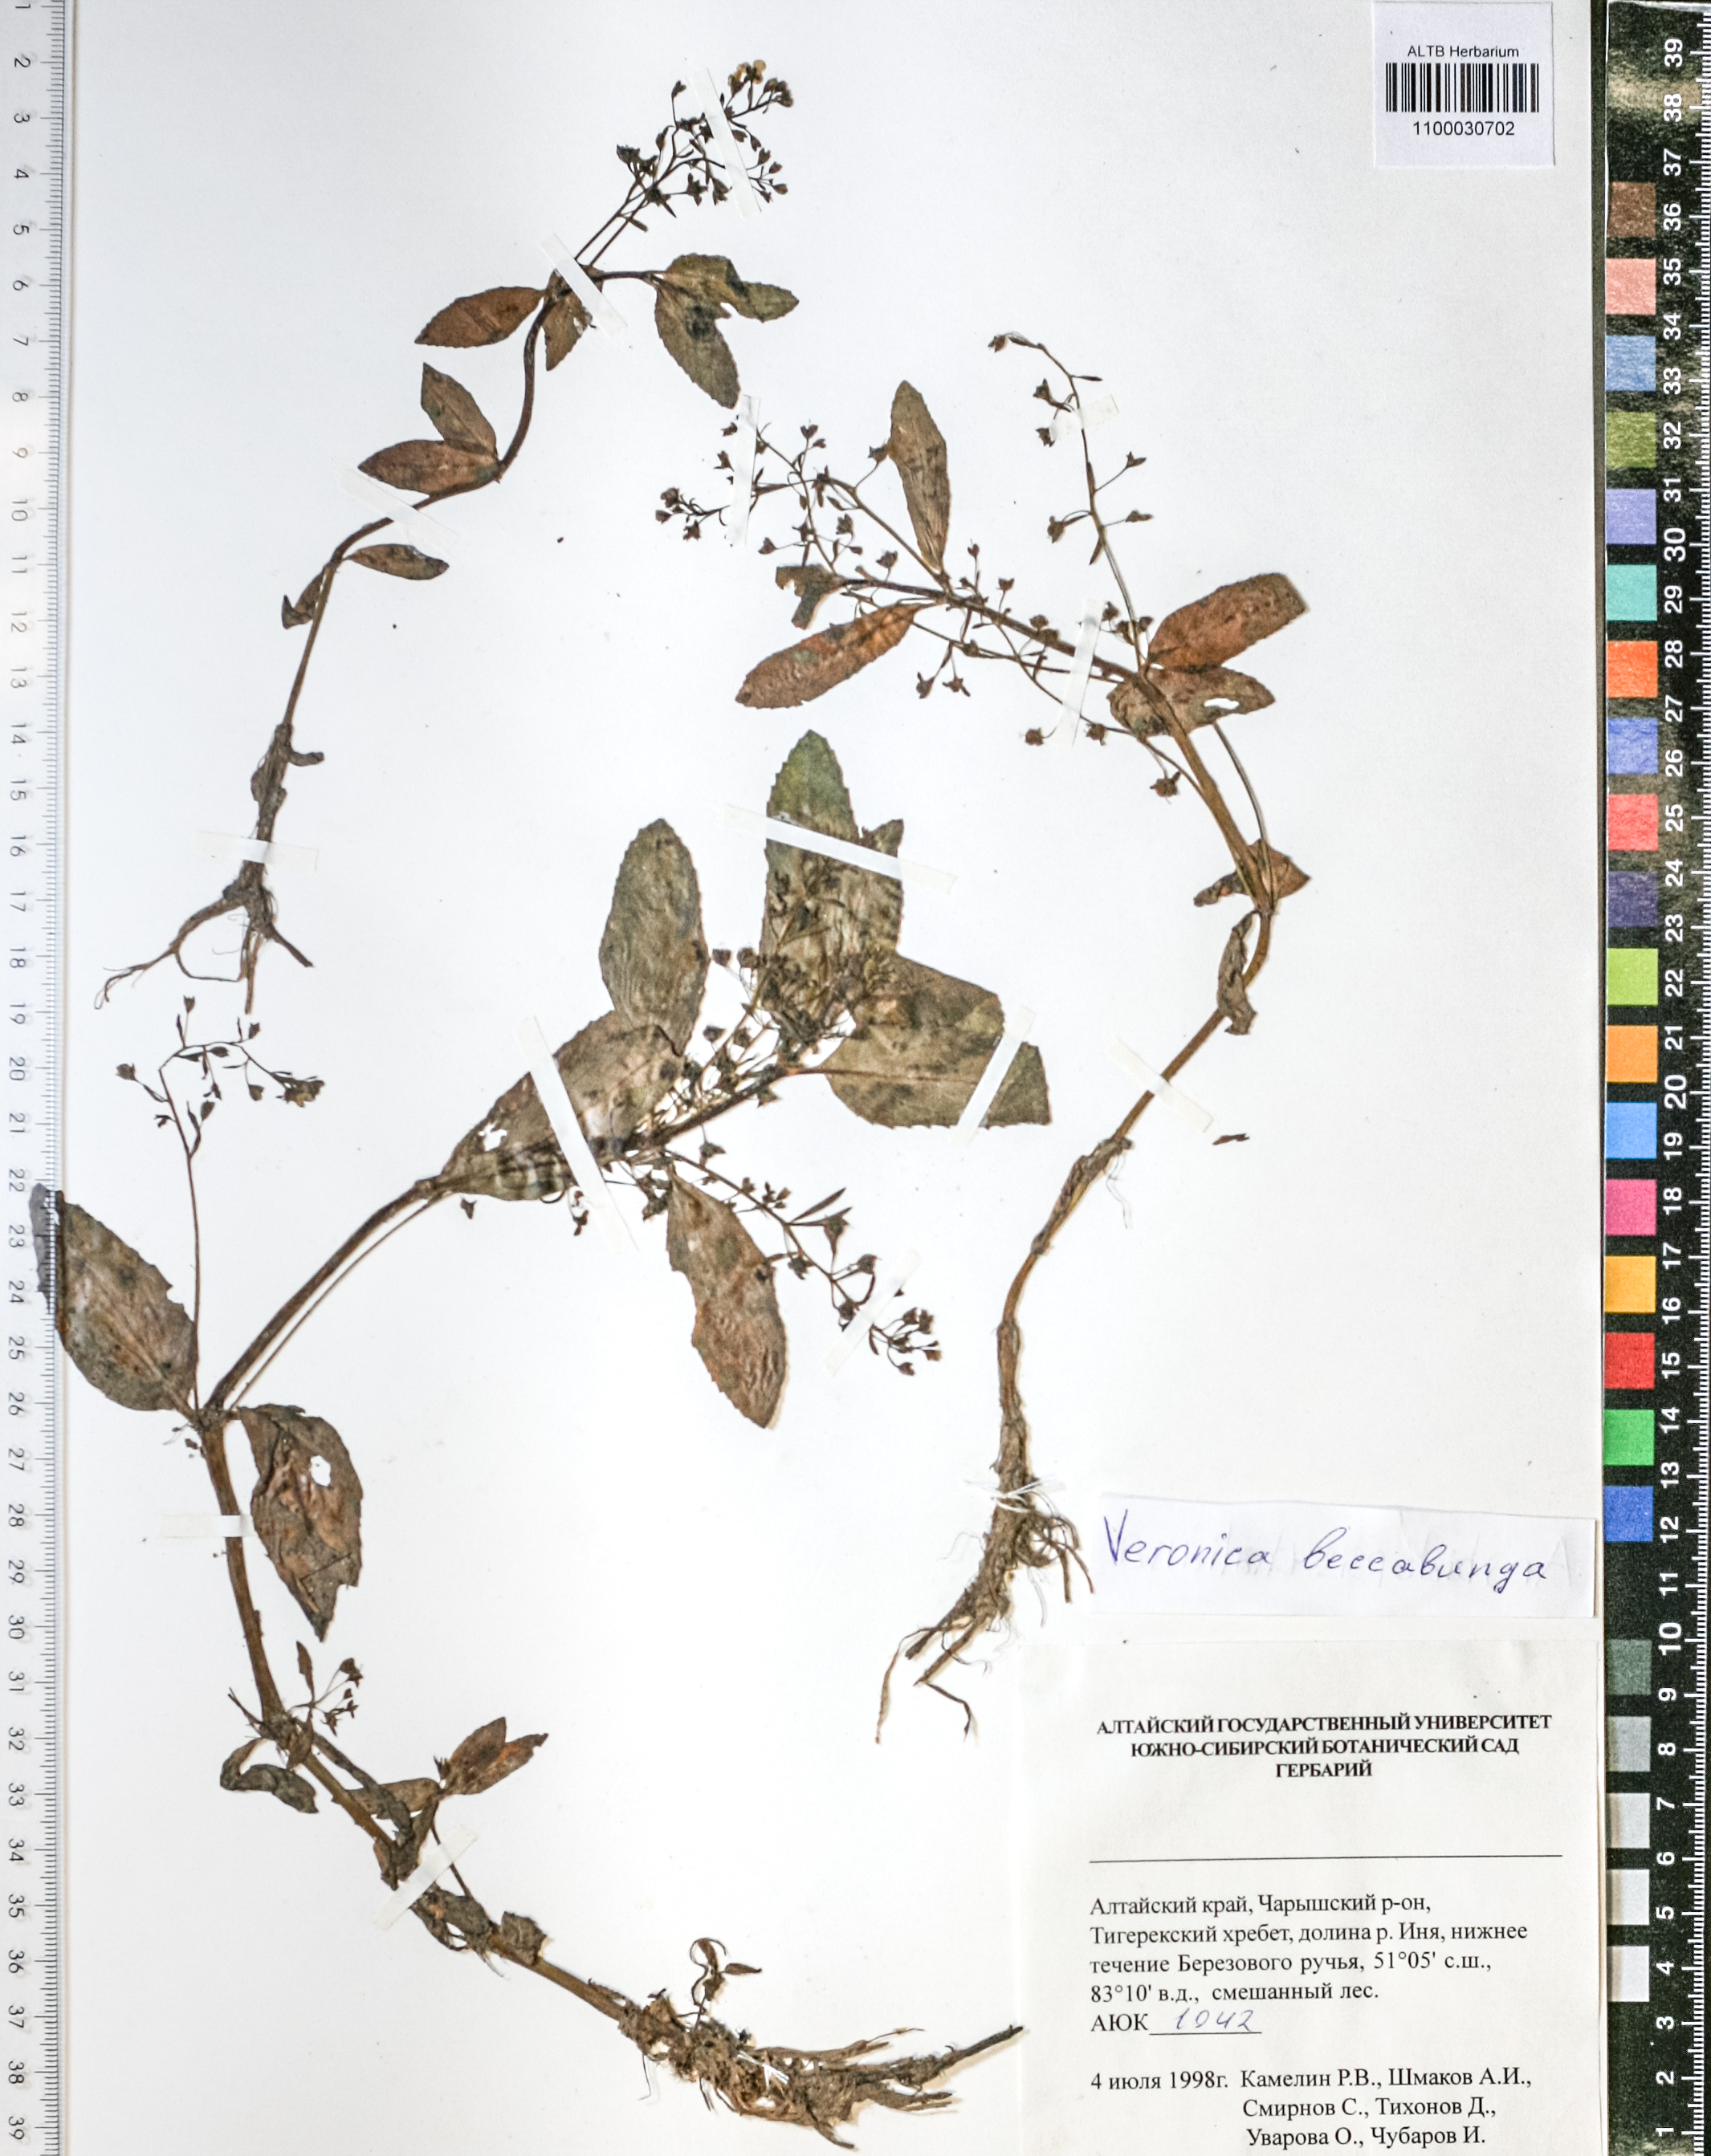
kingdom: Plantae
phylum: Tracheophyta
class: Magnoliopsida
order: Lamiales
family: Plantaginaceae
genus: Veronica
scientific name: Veronica beccabunga
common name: Brooklime
